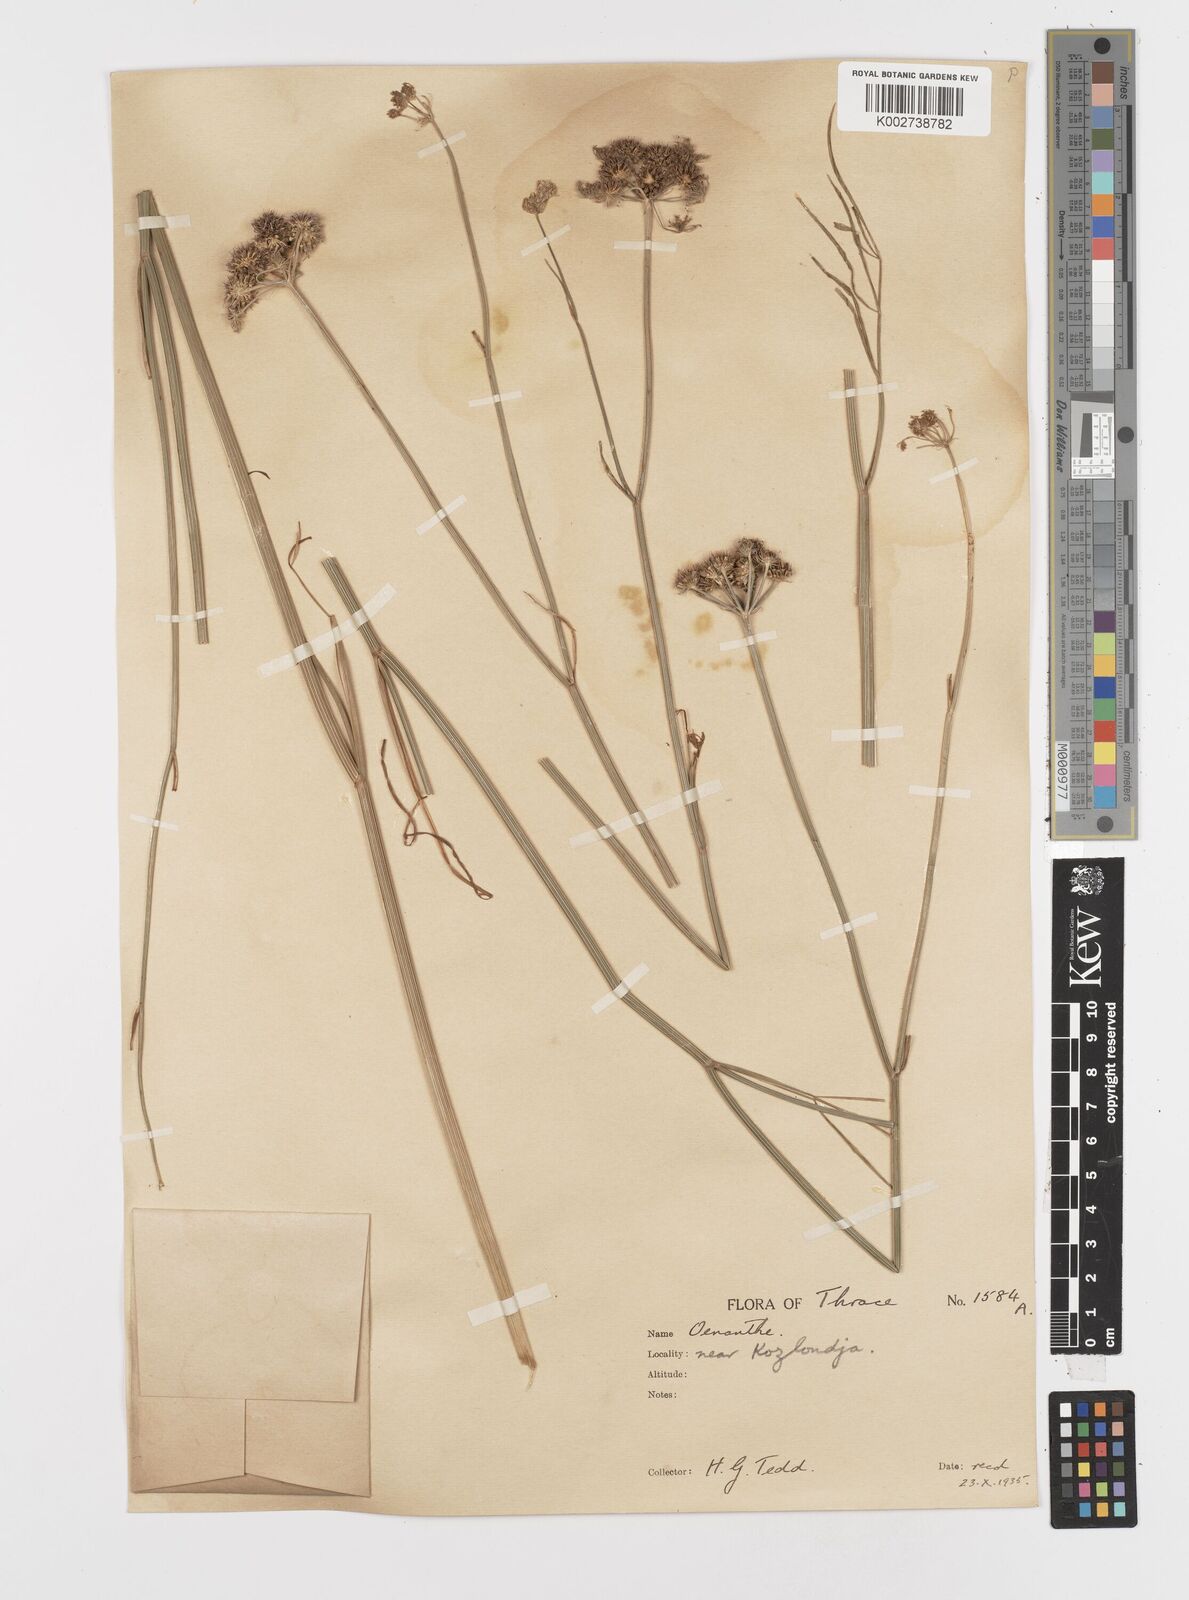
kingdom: Plantae
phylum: Tracheophyta
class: Magnoliopsida
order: Apiales
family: Apiaceae
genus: Oenanthe
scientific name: Oenanthe pimpinelloides
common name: Corky-fruited water-dropwort
